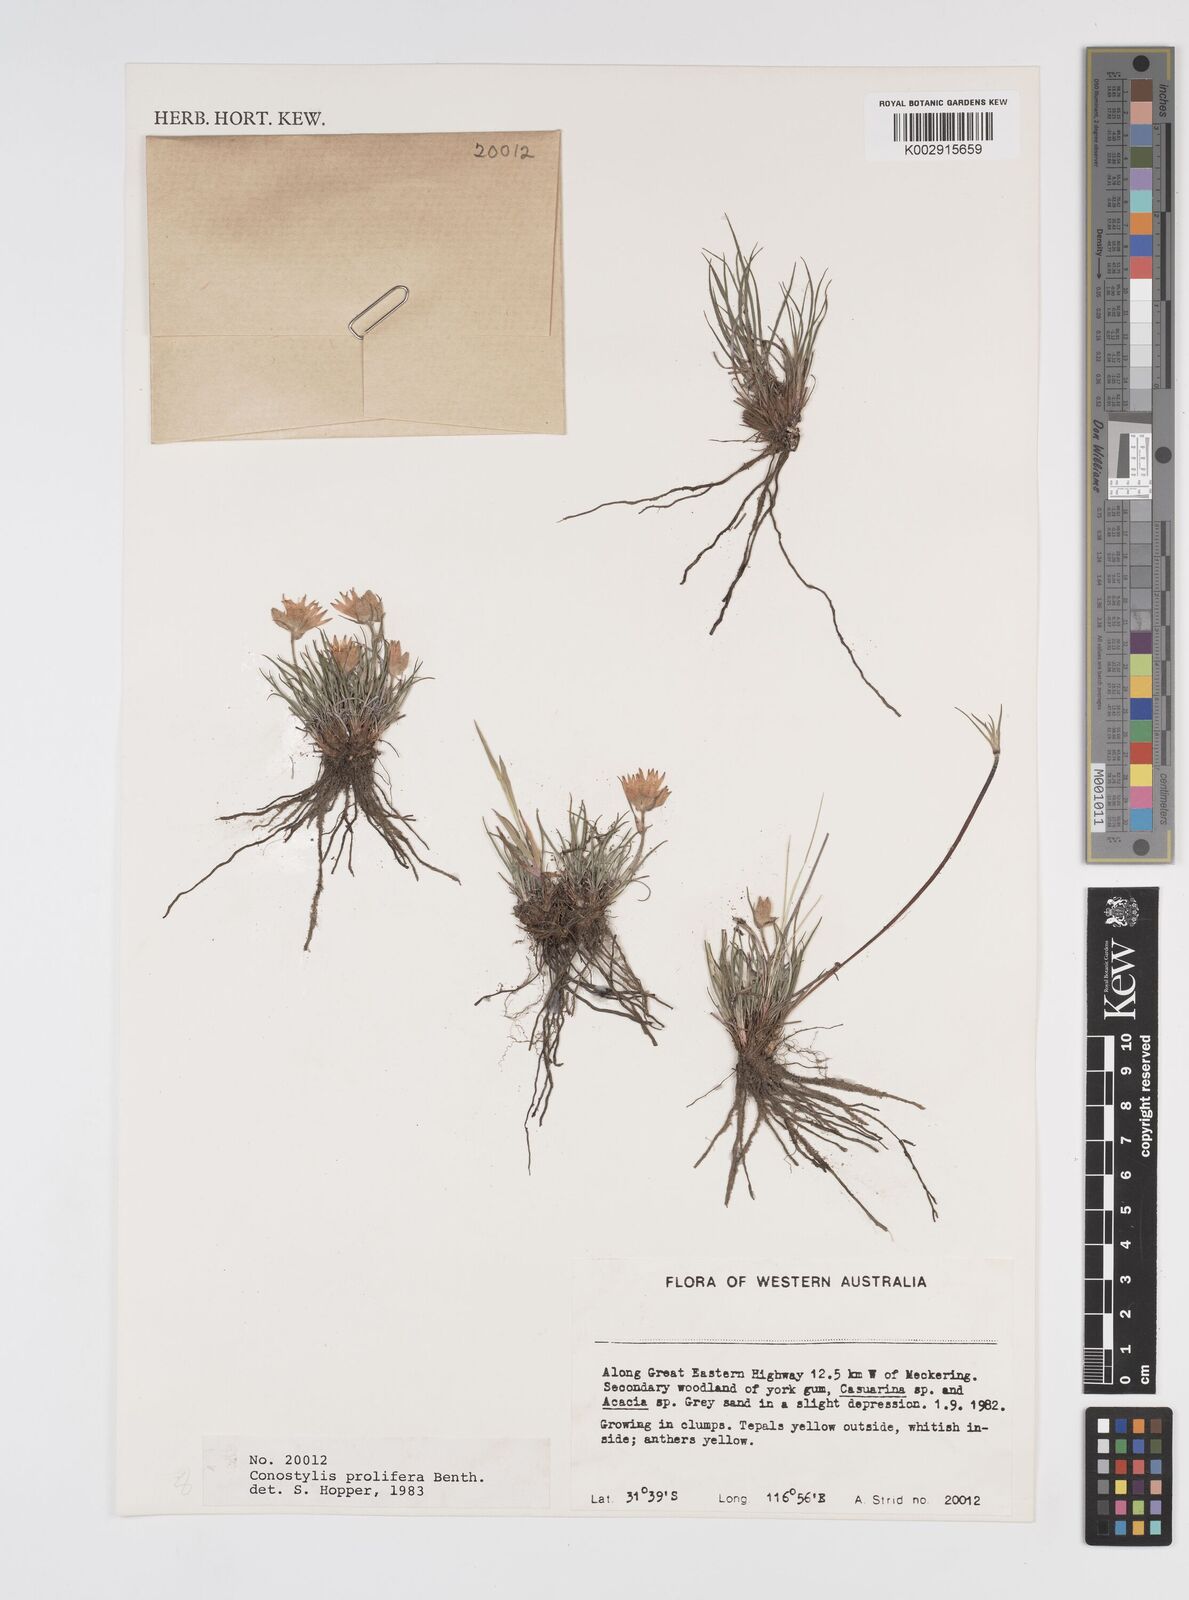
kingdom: Plantae
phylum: Tracheophyta
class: Liliopsida
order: Commelinales
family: Haemodoraceae
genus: Conostylis
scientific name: Conostylis stylidioides
